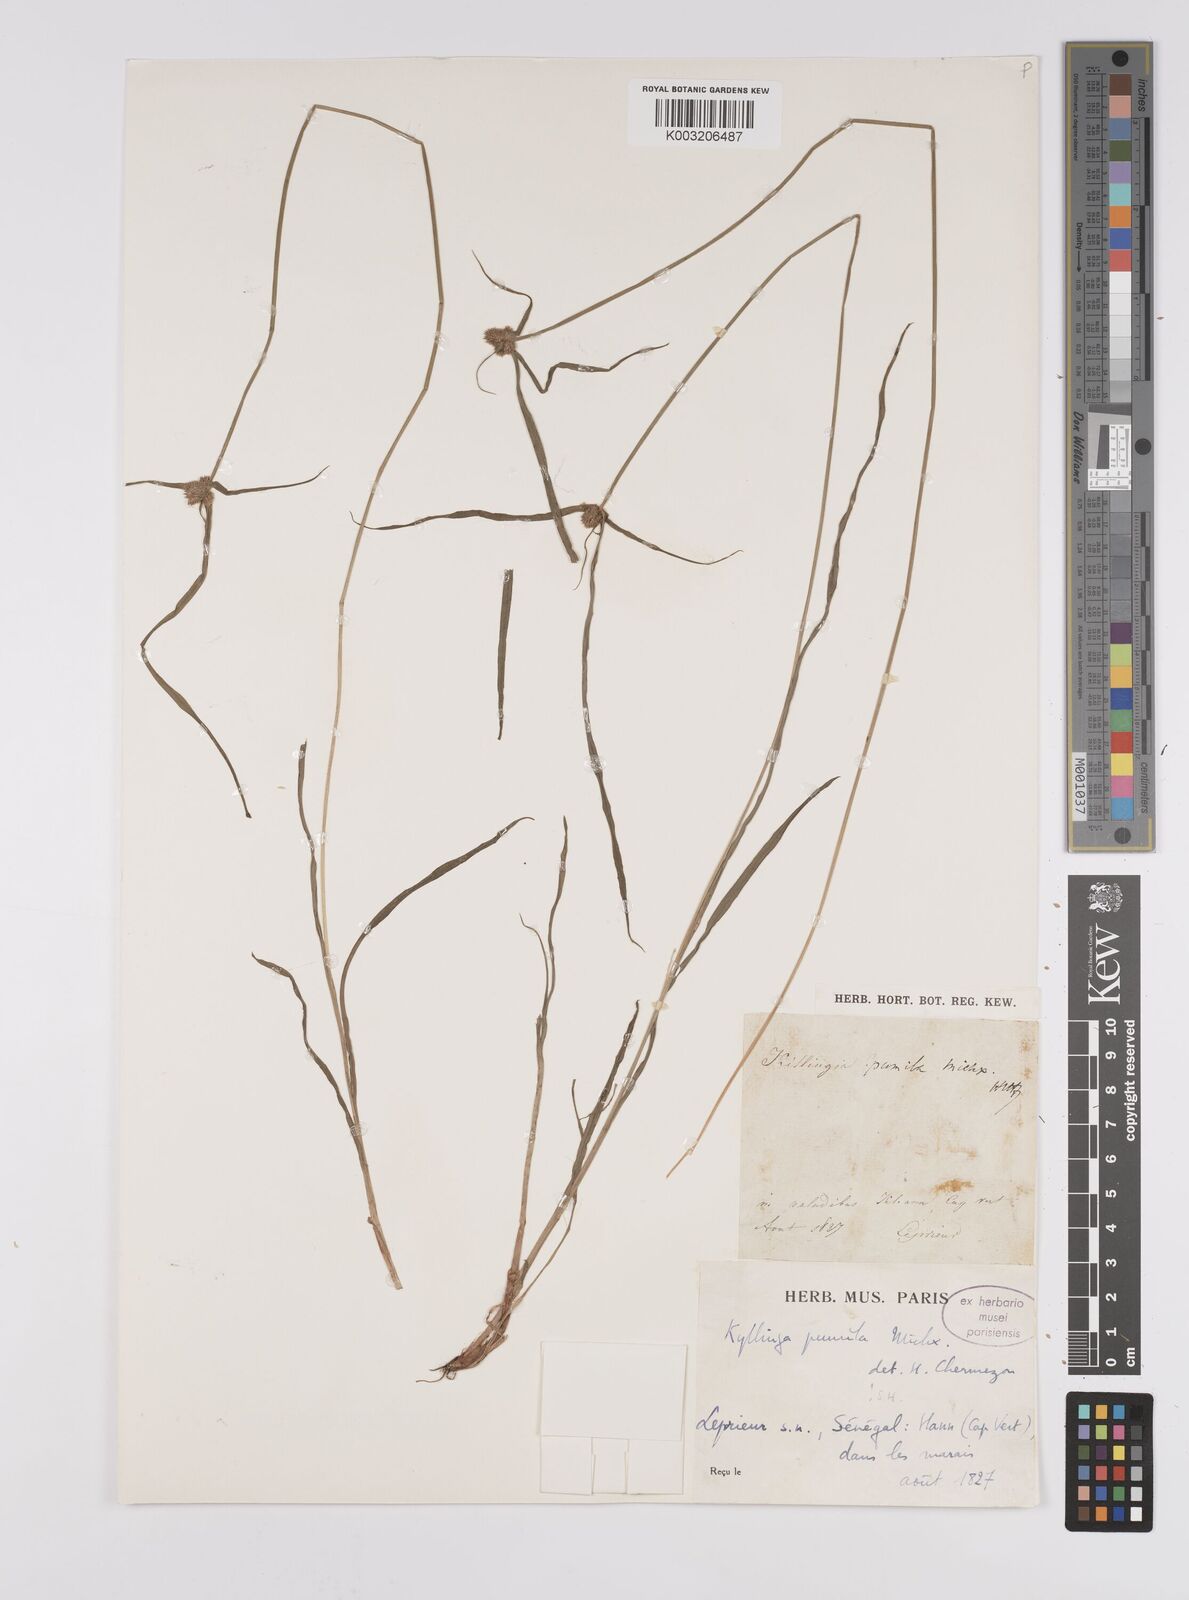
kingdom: Plantae
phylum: Tracheophyta
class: Liliopsida
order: Poales
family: Cyperaceae
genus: Cyperus
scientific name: Cyperus
